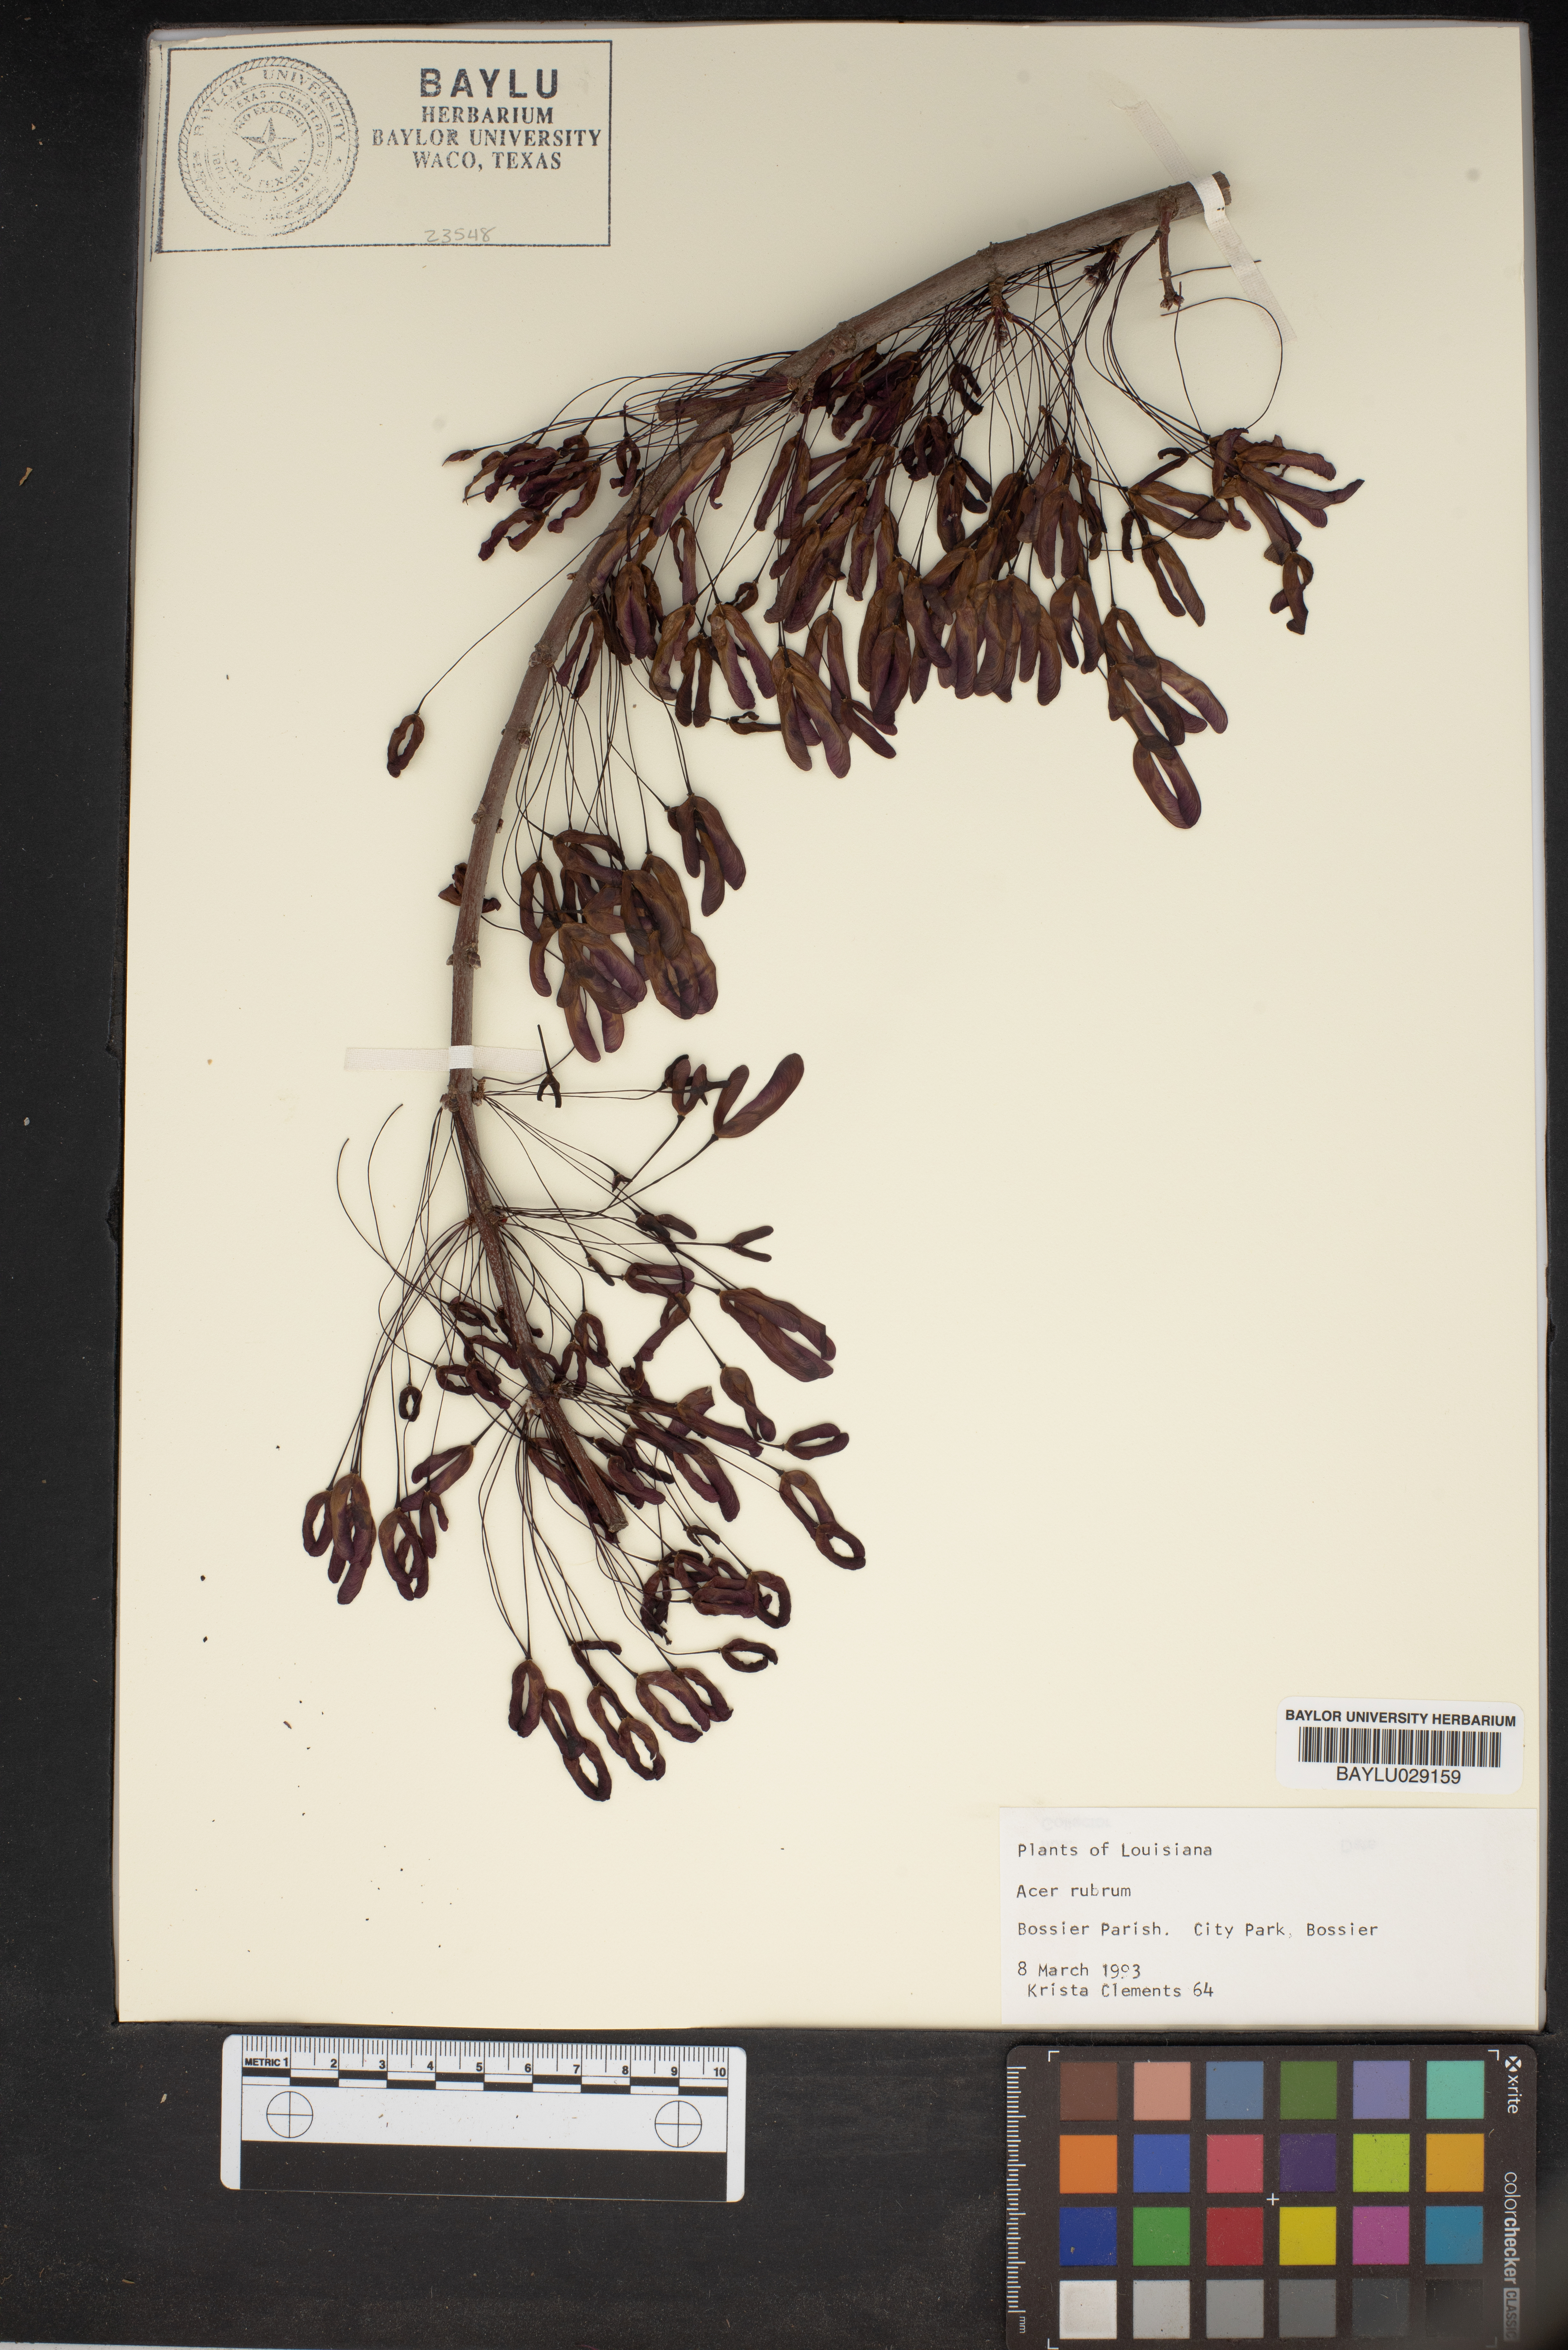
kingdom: Plantae
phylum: Tracheophyta
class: Magnoliopsida
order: Sapindales
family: Sapindaceae
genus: Acer
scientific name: Acer rubrum
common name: Red maple
